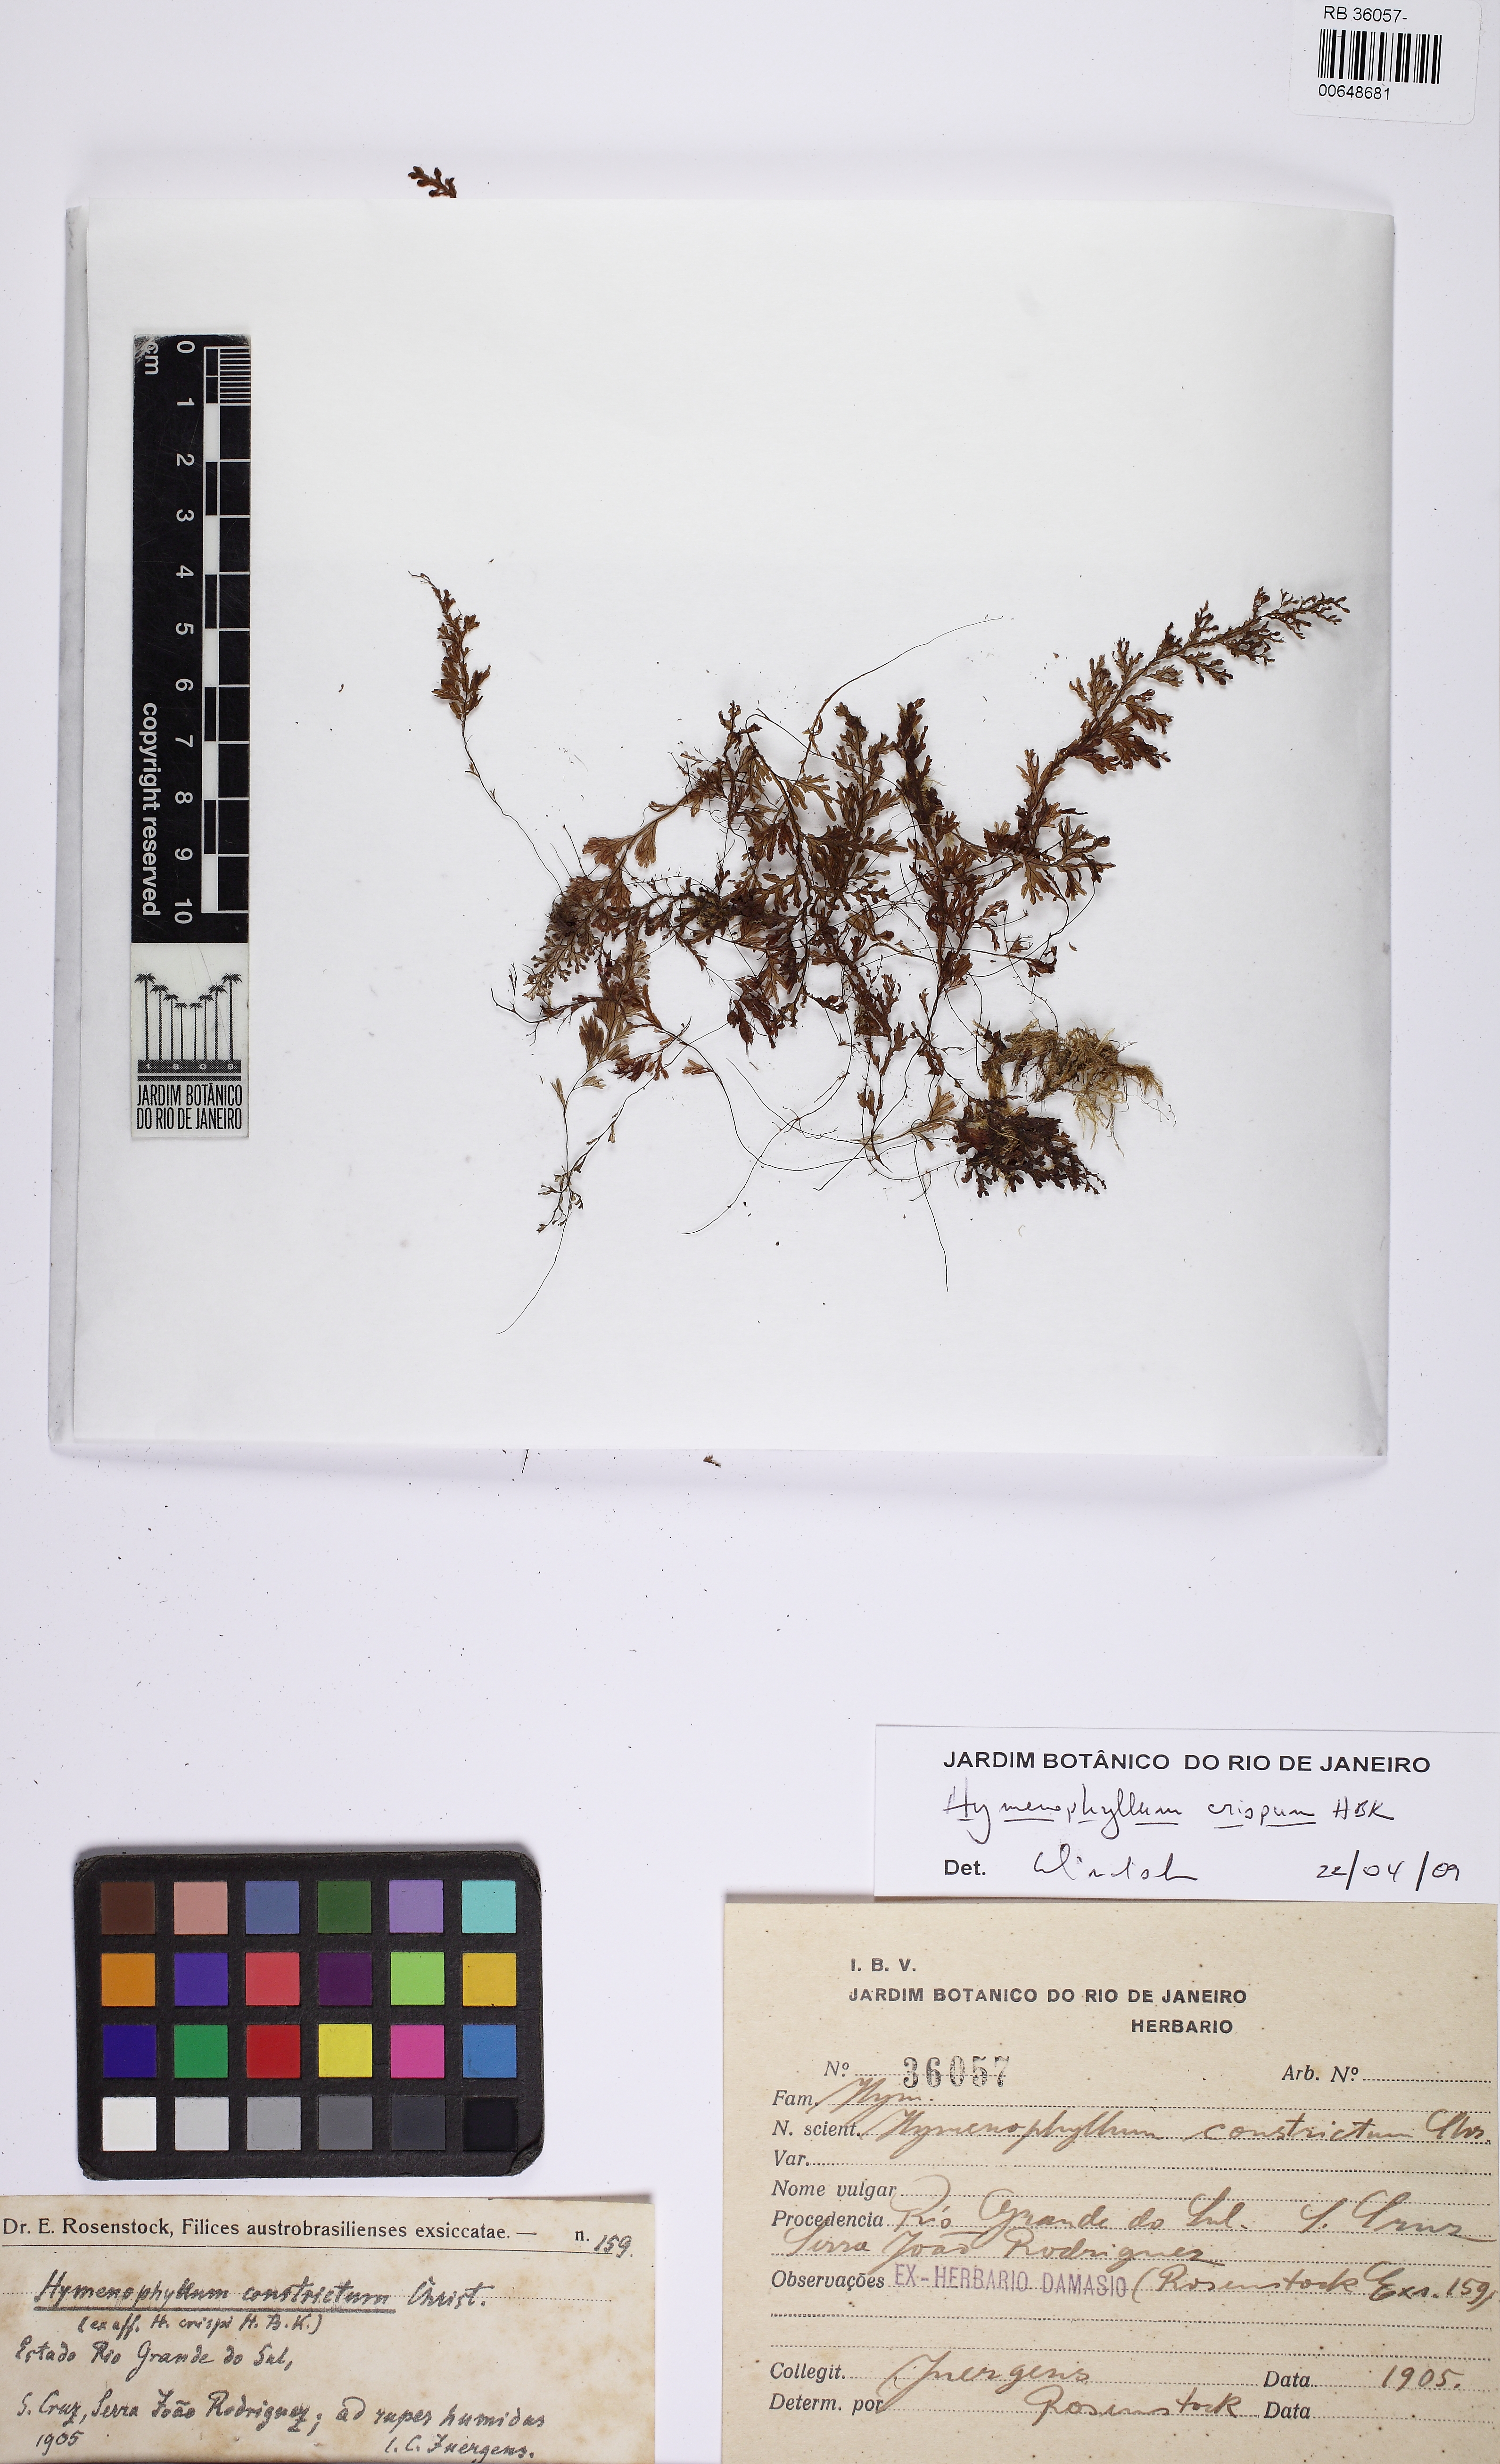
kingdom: Plantae
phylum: Tracheophyta
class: Polypodiopsida
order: Hymenophyllales
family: Hymenophyllaceae
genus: Hymenophyllum
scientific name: Hymenophyllum crispum
